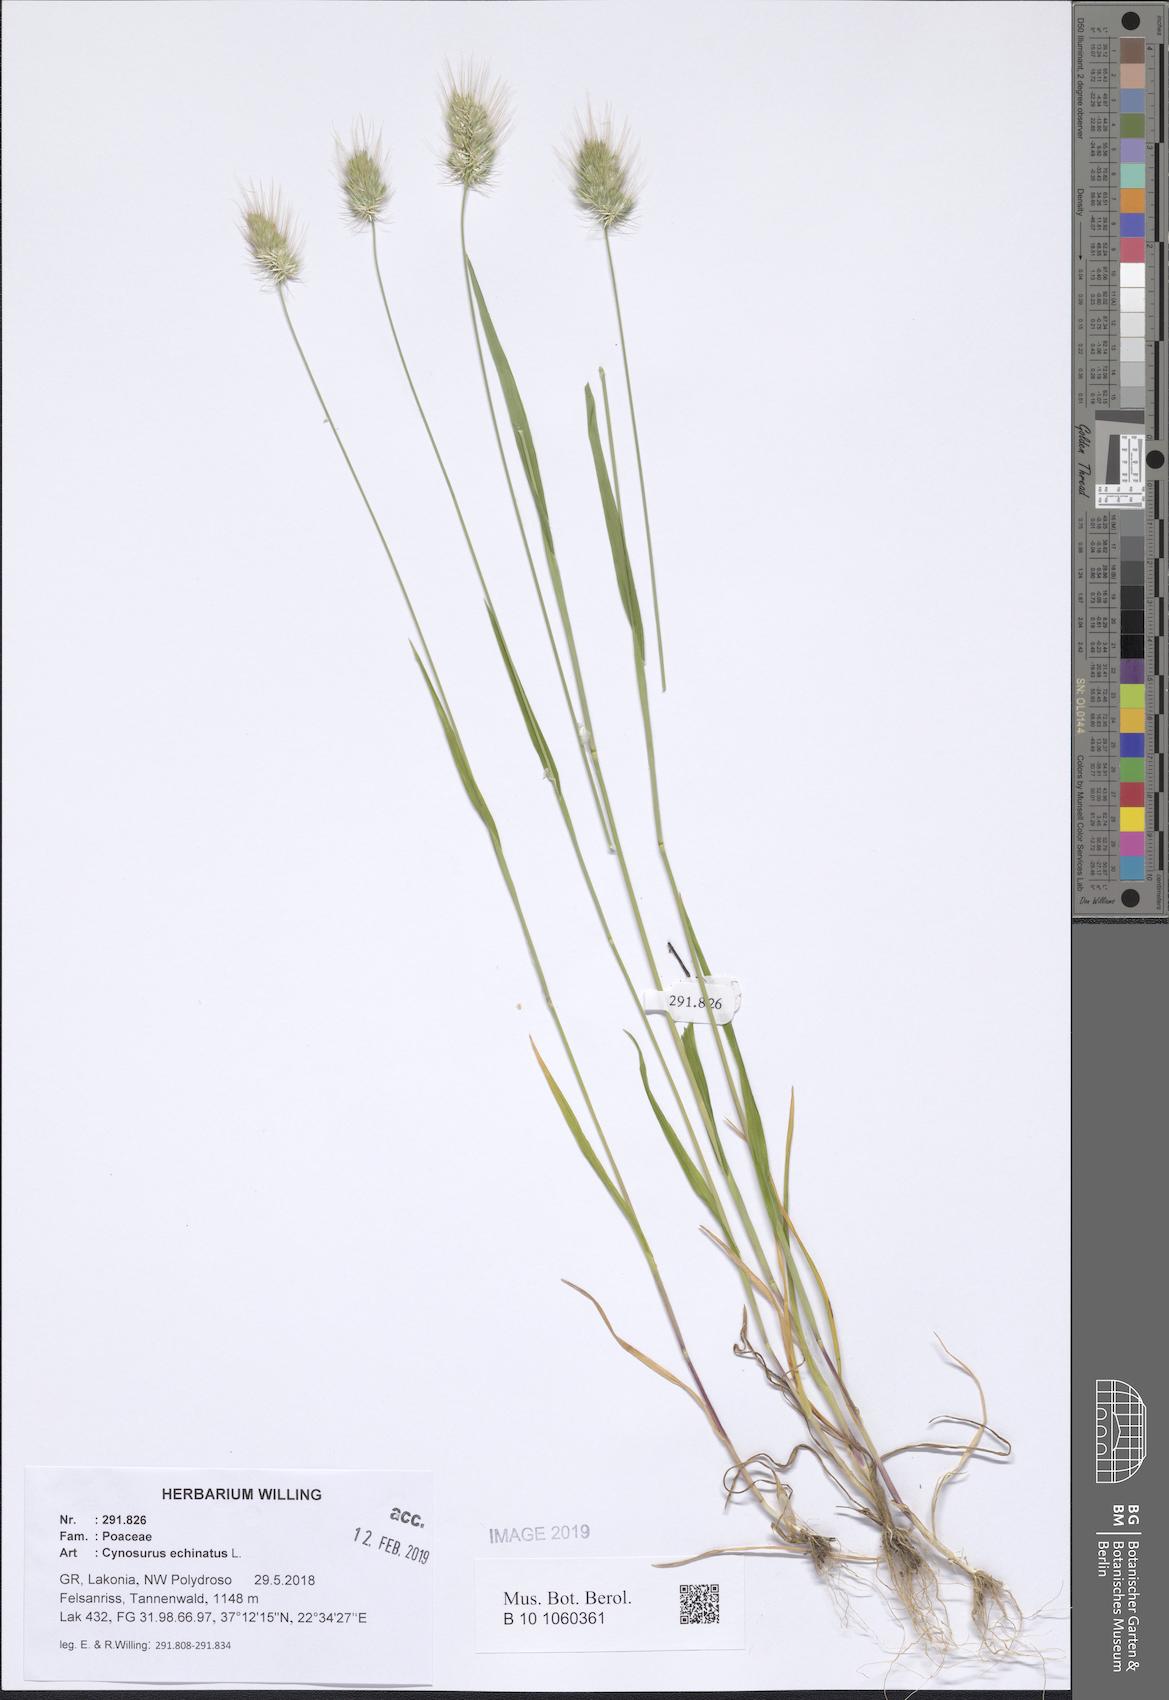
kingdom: Plantae
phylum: Tracheophyta
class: Liliopsida
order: Poales
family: Poaceae
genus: Cynosurus
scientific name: Cynosurus echinatus
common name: Rough dog's-tail
